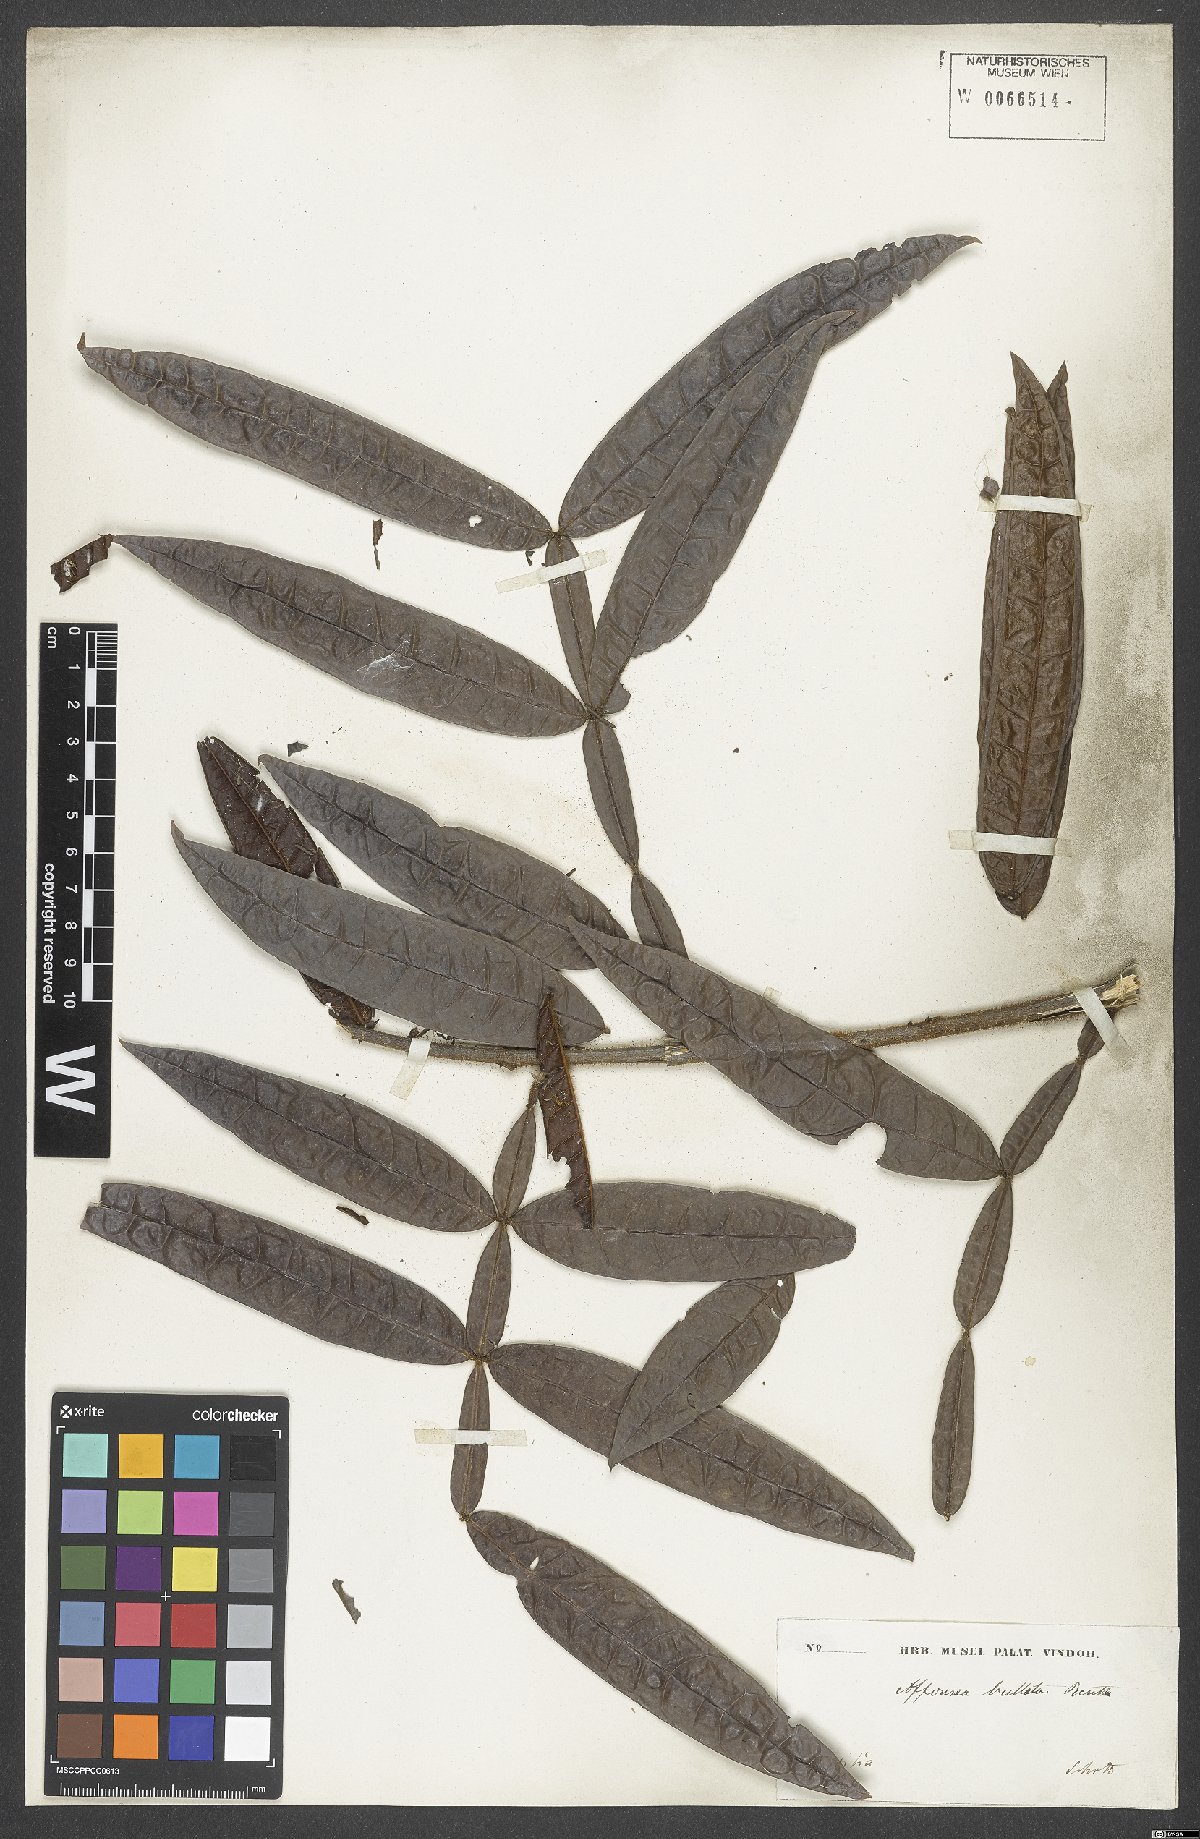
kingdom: Plantae
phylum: Tracheophyta
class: Magnoliopsida
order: Fabales
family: Fabaceae
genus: Inga
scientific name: Inga congesta
